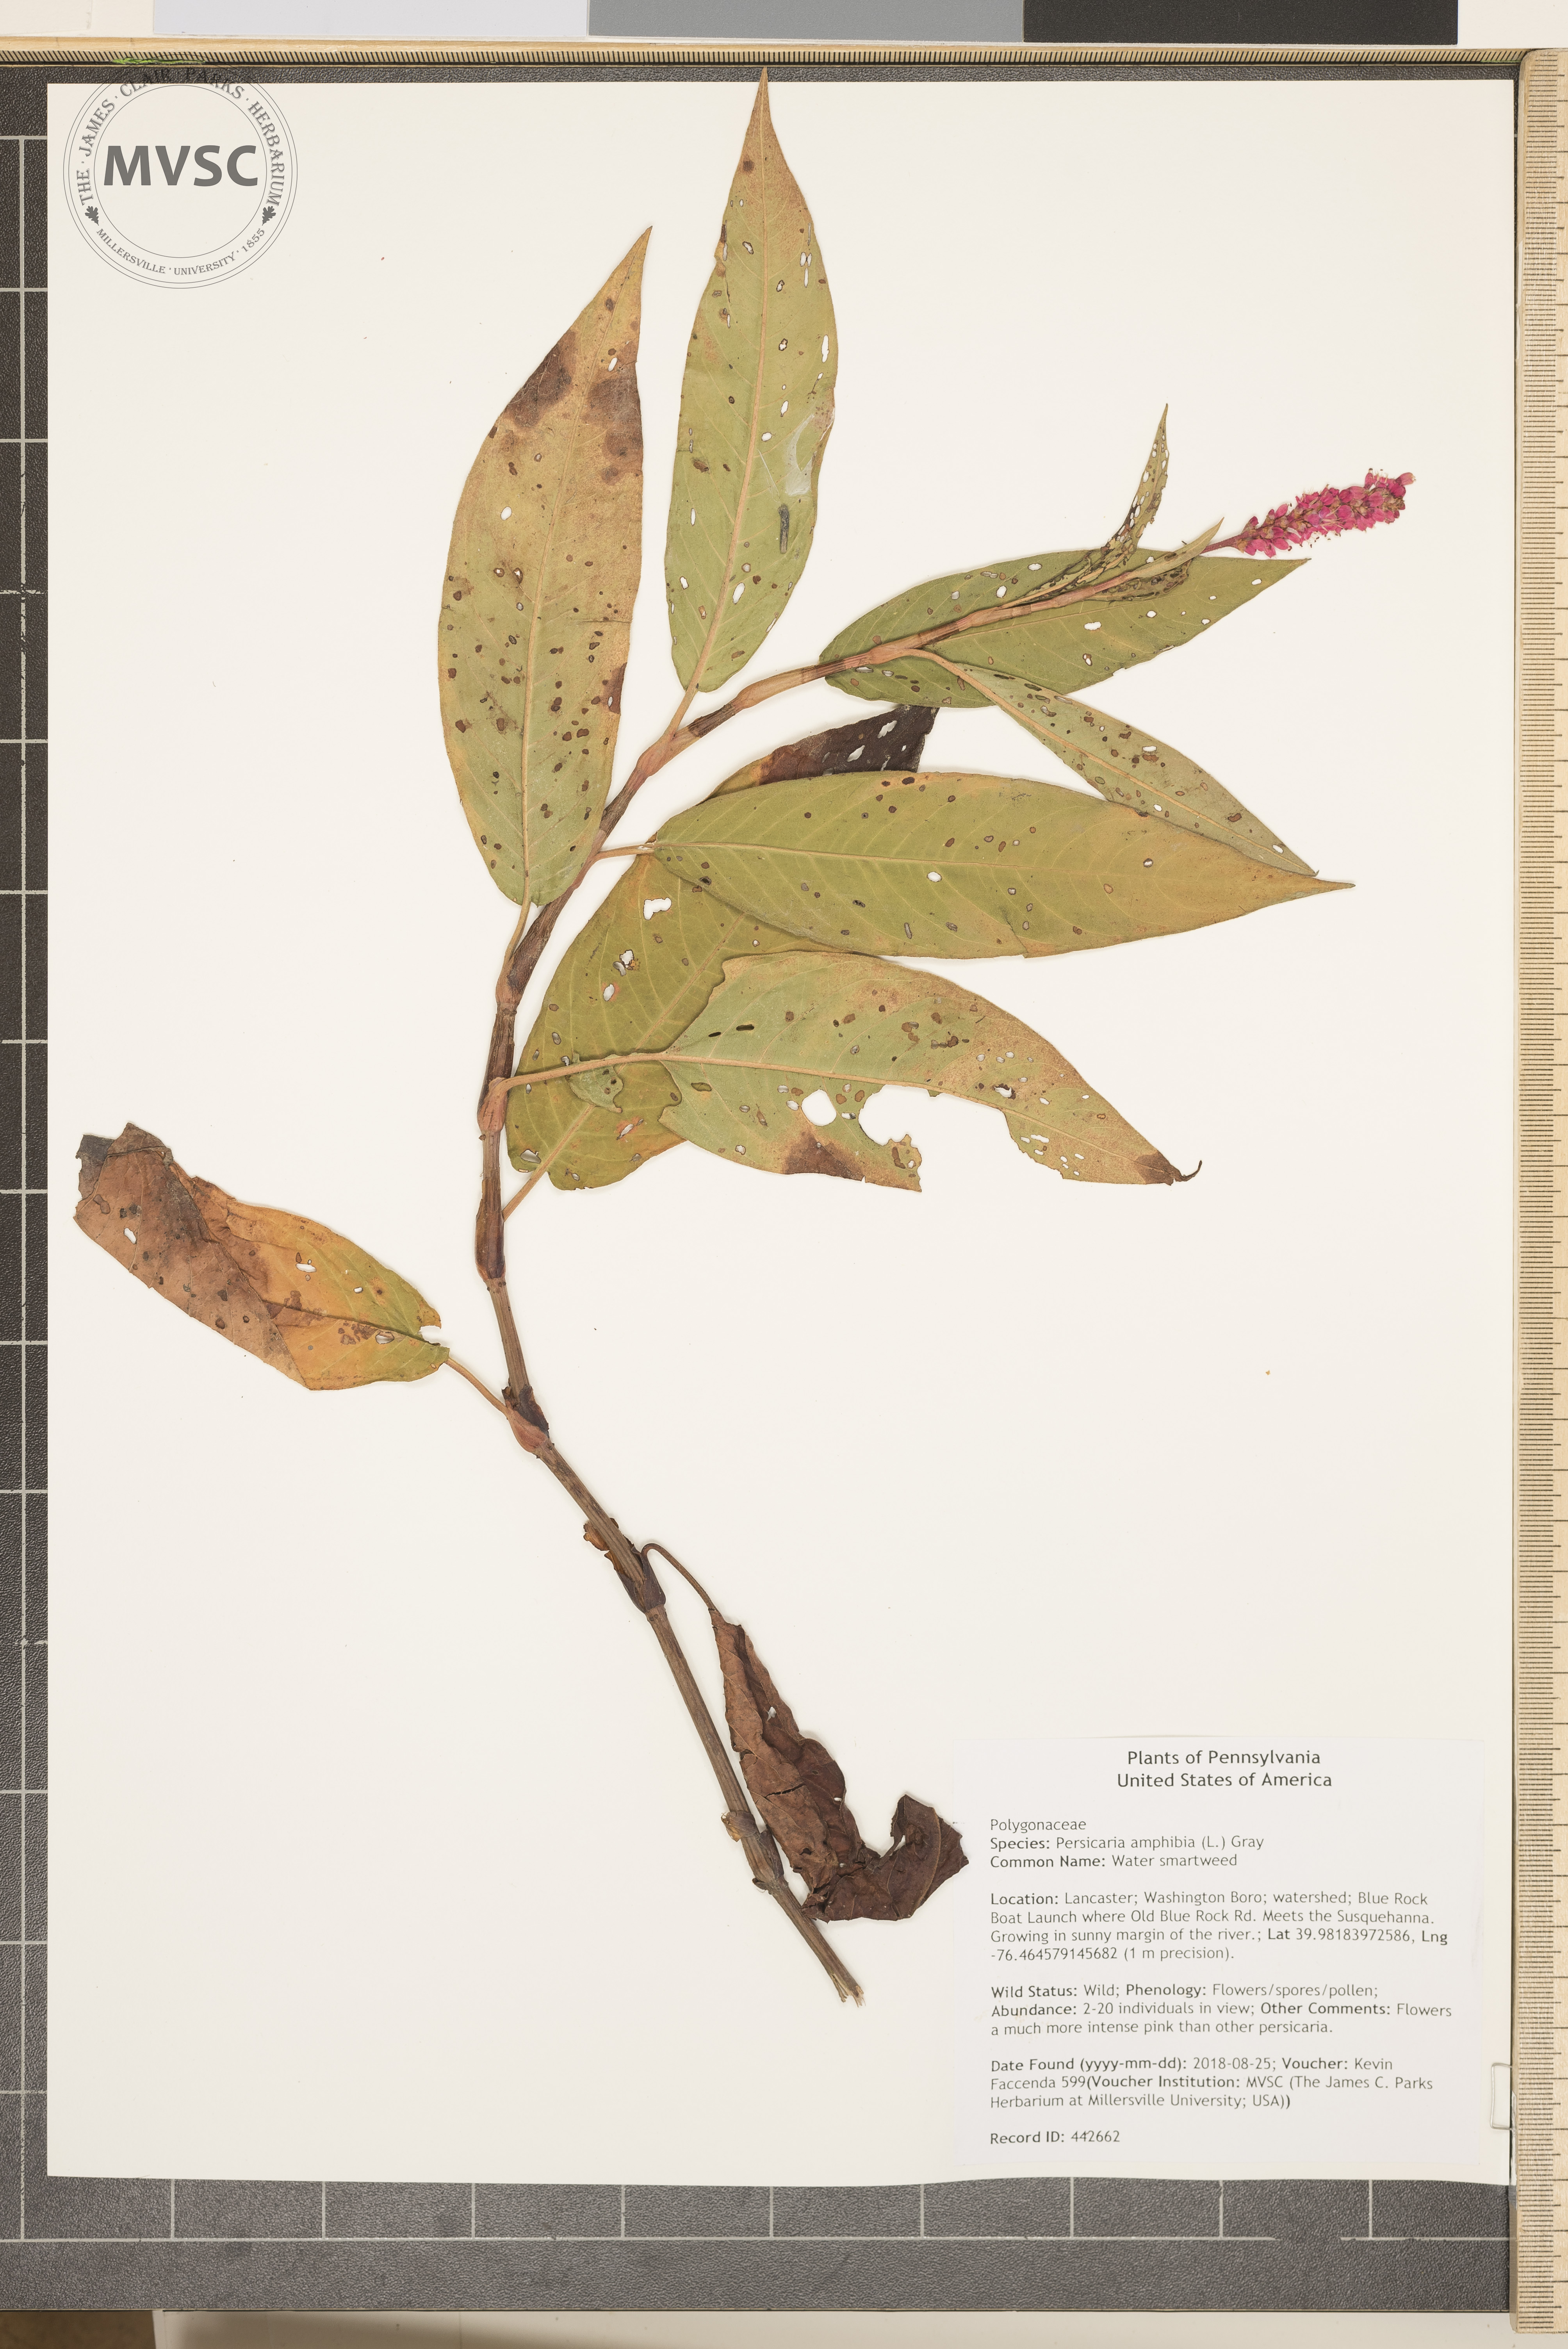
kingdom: Plantae
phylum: Tracheophyta
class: Magnoliopsida
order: Caryophyllales
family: Polygonaceae
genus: Persicaria
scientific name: Persicaria amphibia
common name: Water smartweed
